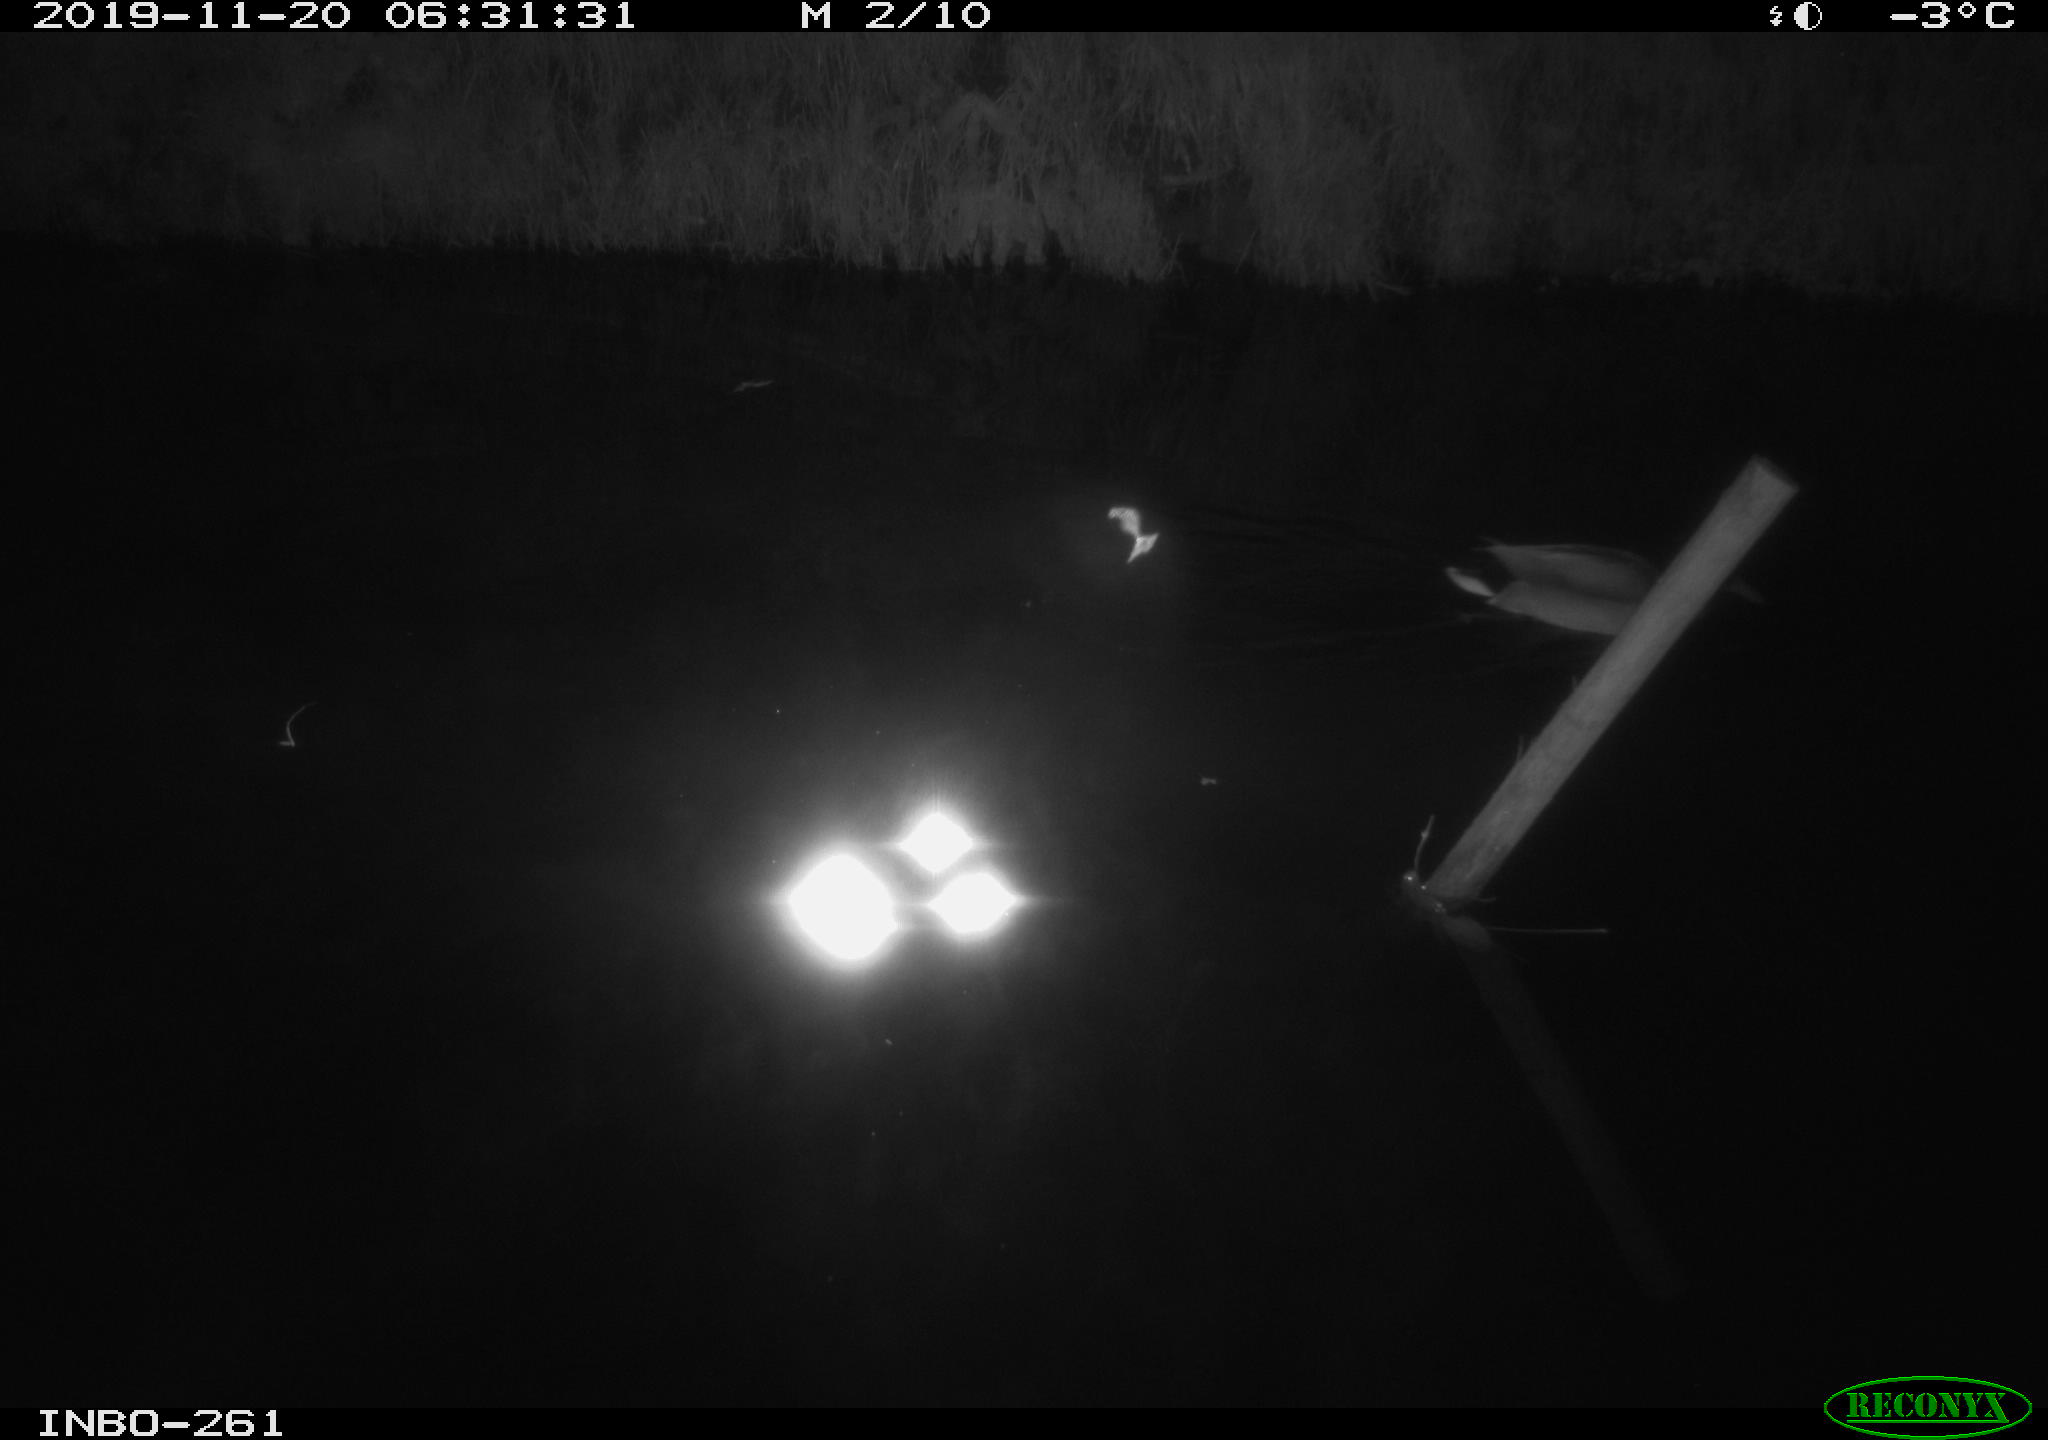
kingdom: Animalia
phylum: Chordata
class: Aves
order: Anseriformes
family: Anatidae
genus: Anas
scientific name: Anas platyrhynchos
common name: Mallard
